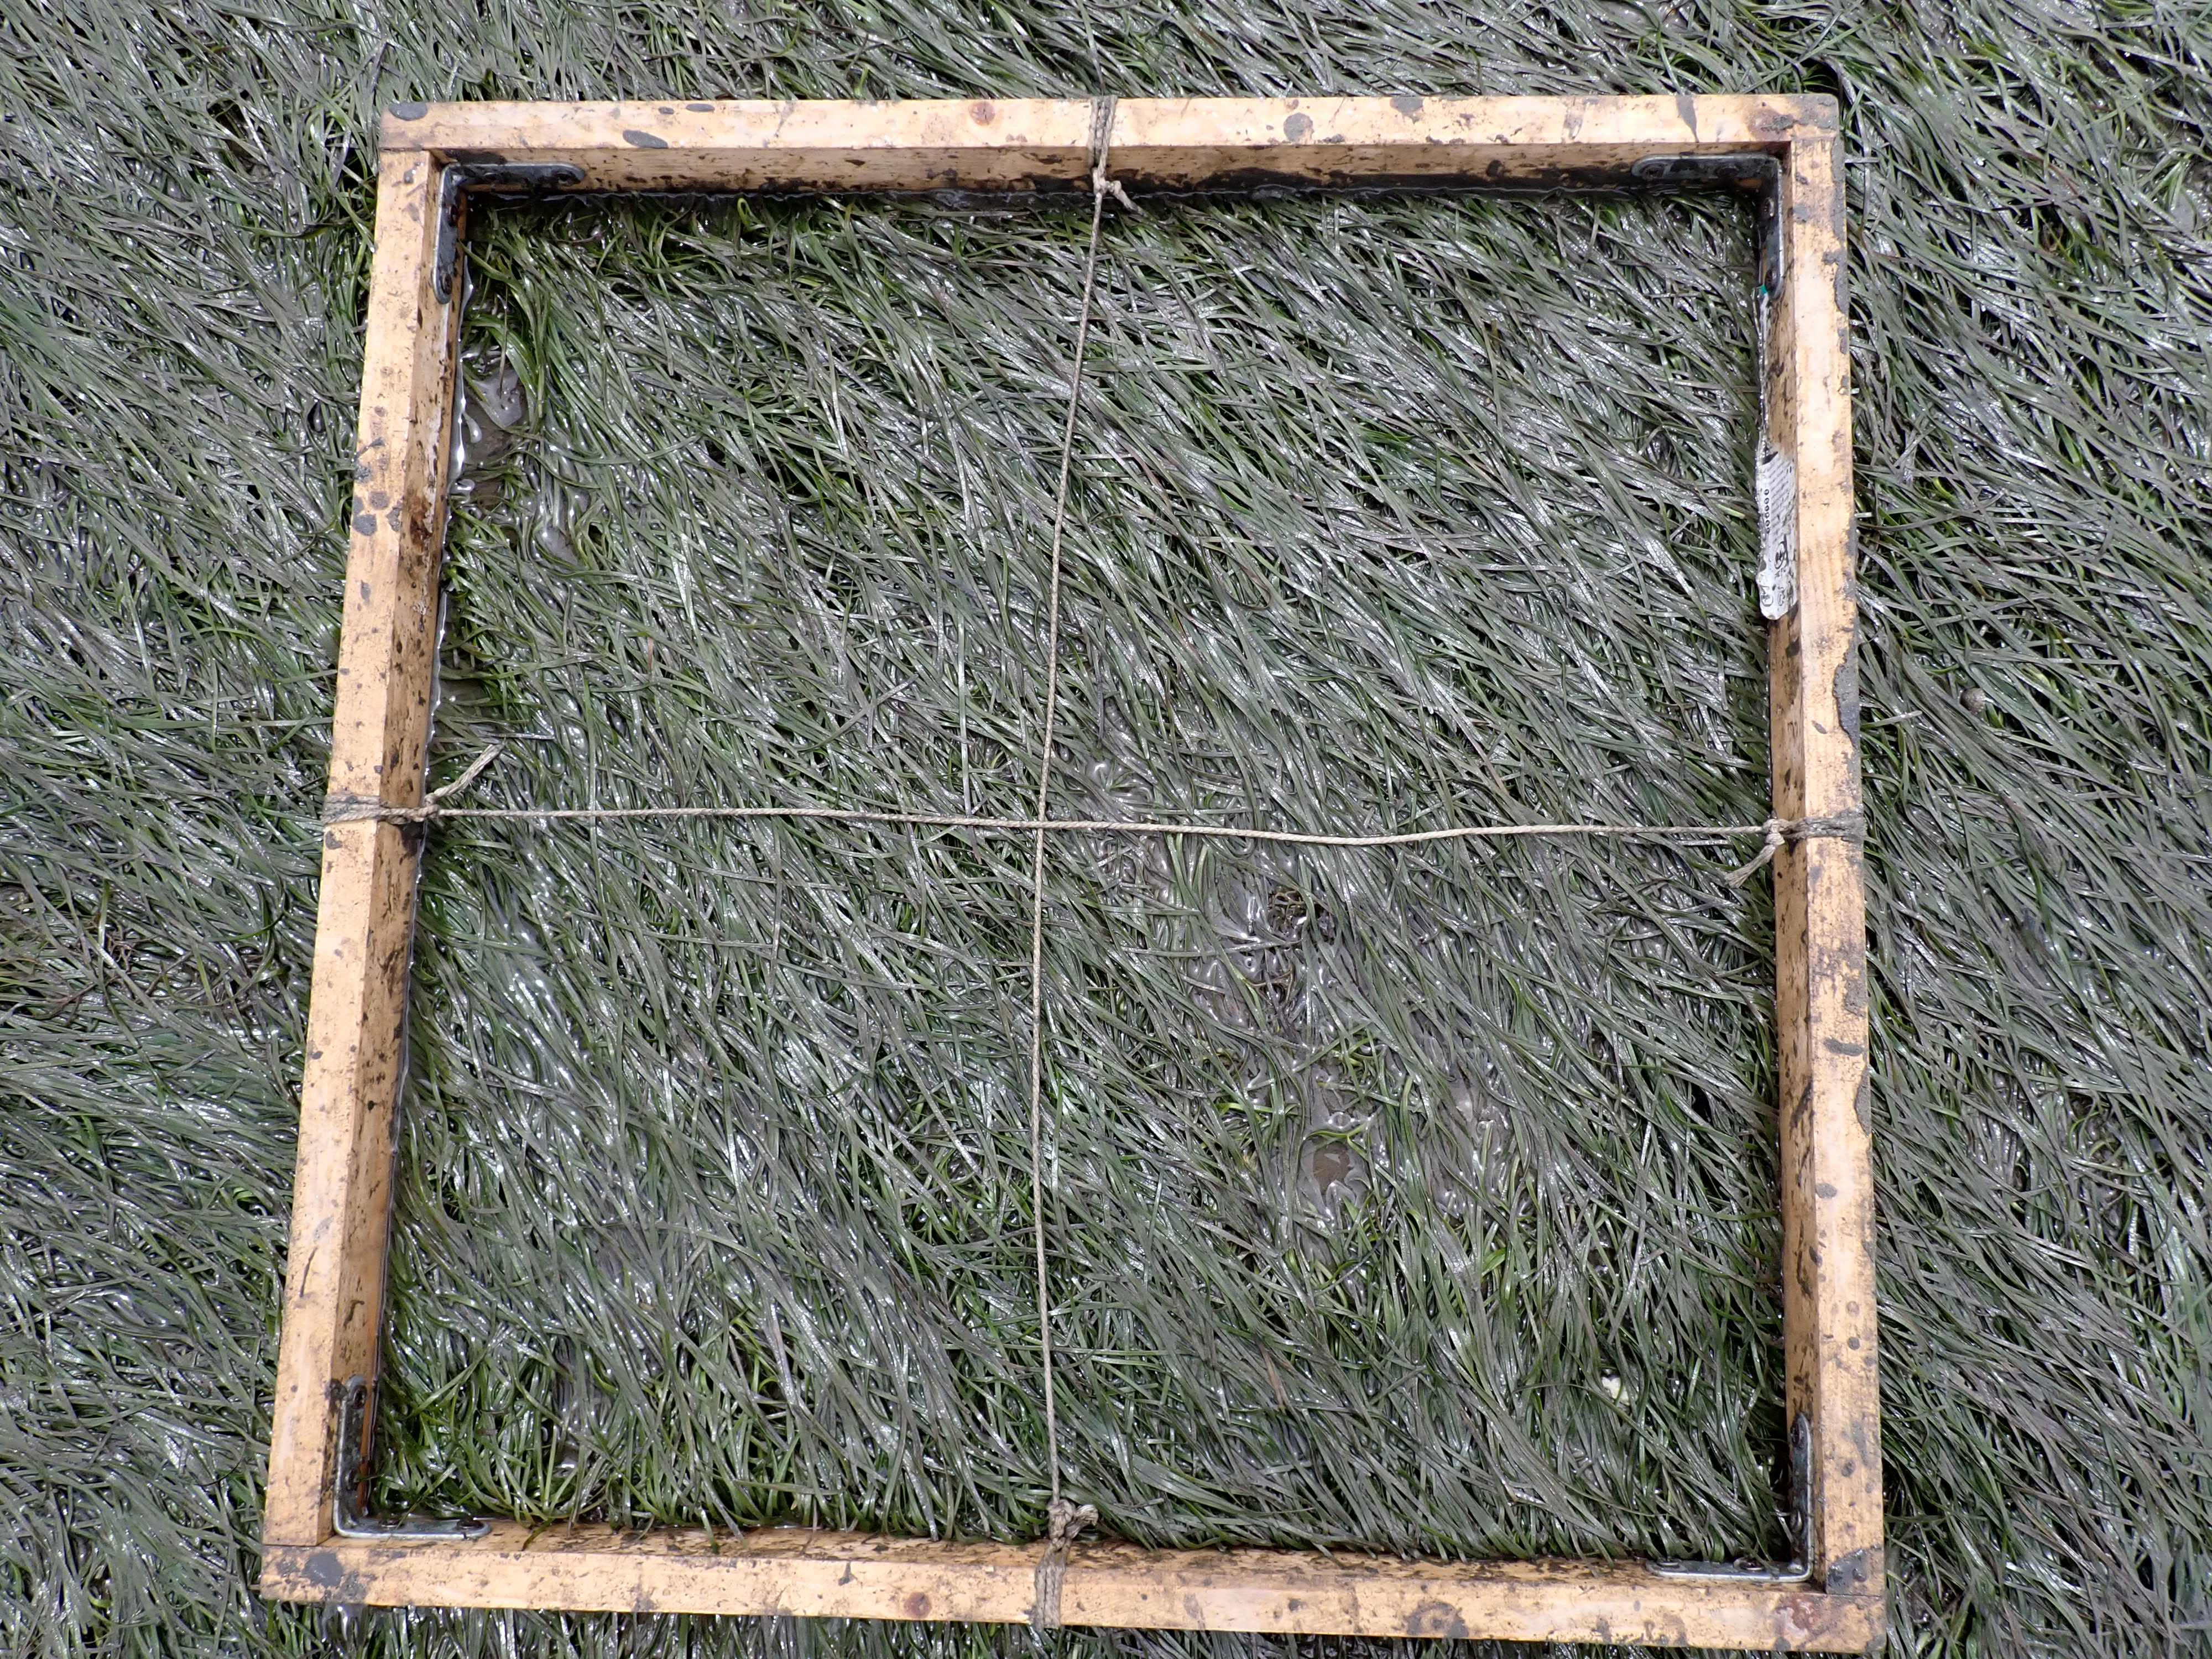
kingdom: Plantae
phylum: Tracheophyta
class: Liliopsida
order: Alismatales
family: Zosteraceae
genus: Zostera
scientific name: Zostera noltii
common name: Dwarf eelgrass
